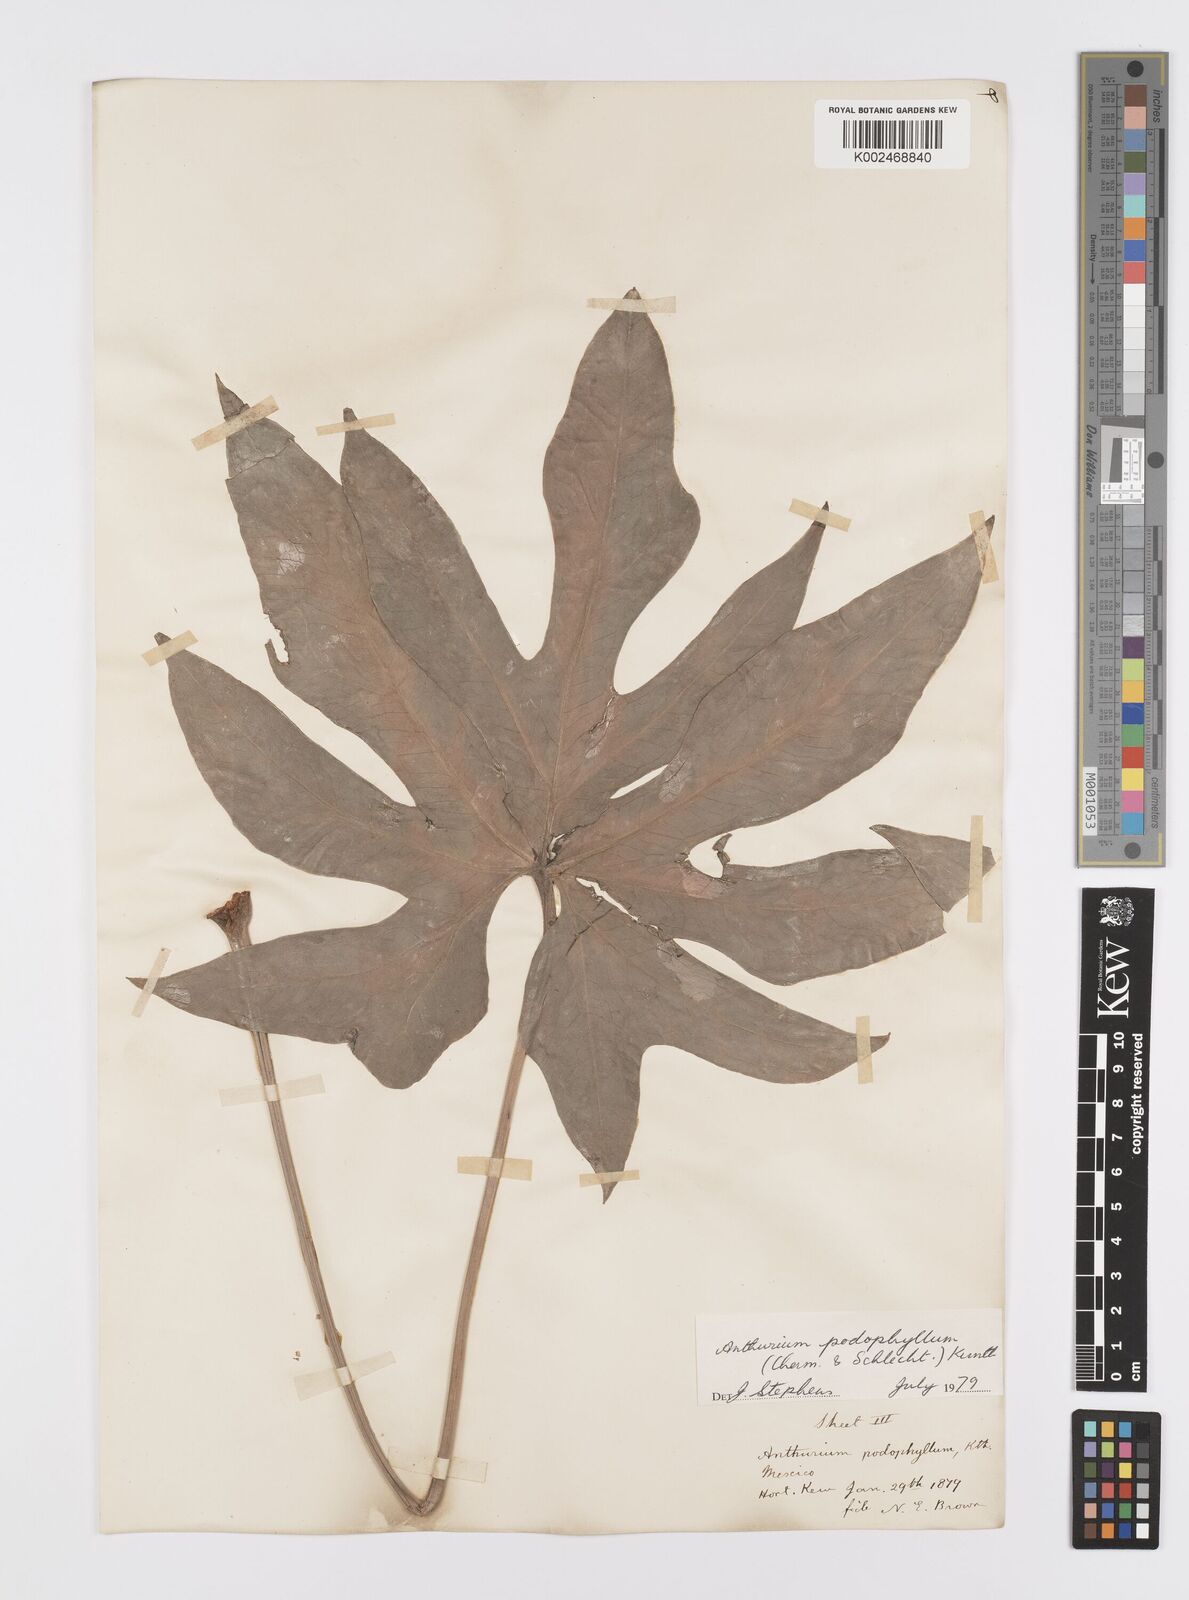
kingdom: Plantae
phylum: Tracheophyta
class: Liliopsida
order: Alismatales
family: Araceae
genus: Anthurium
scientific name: Anthurium podophyllum
